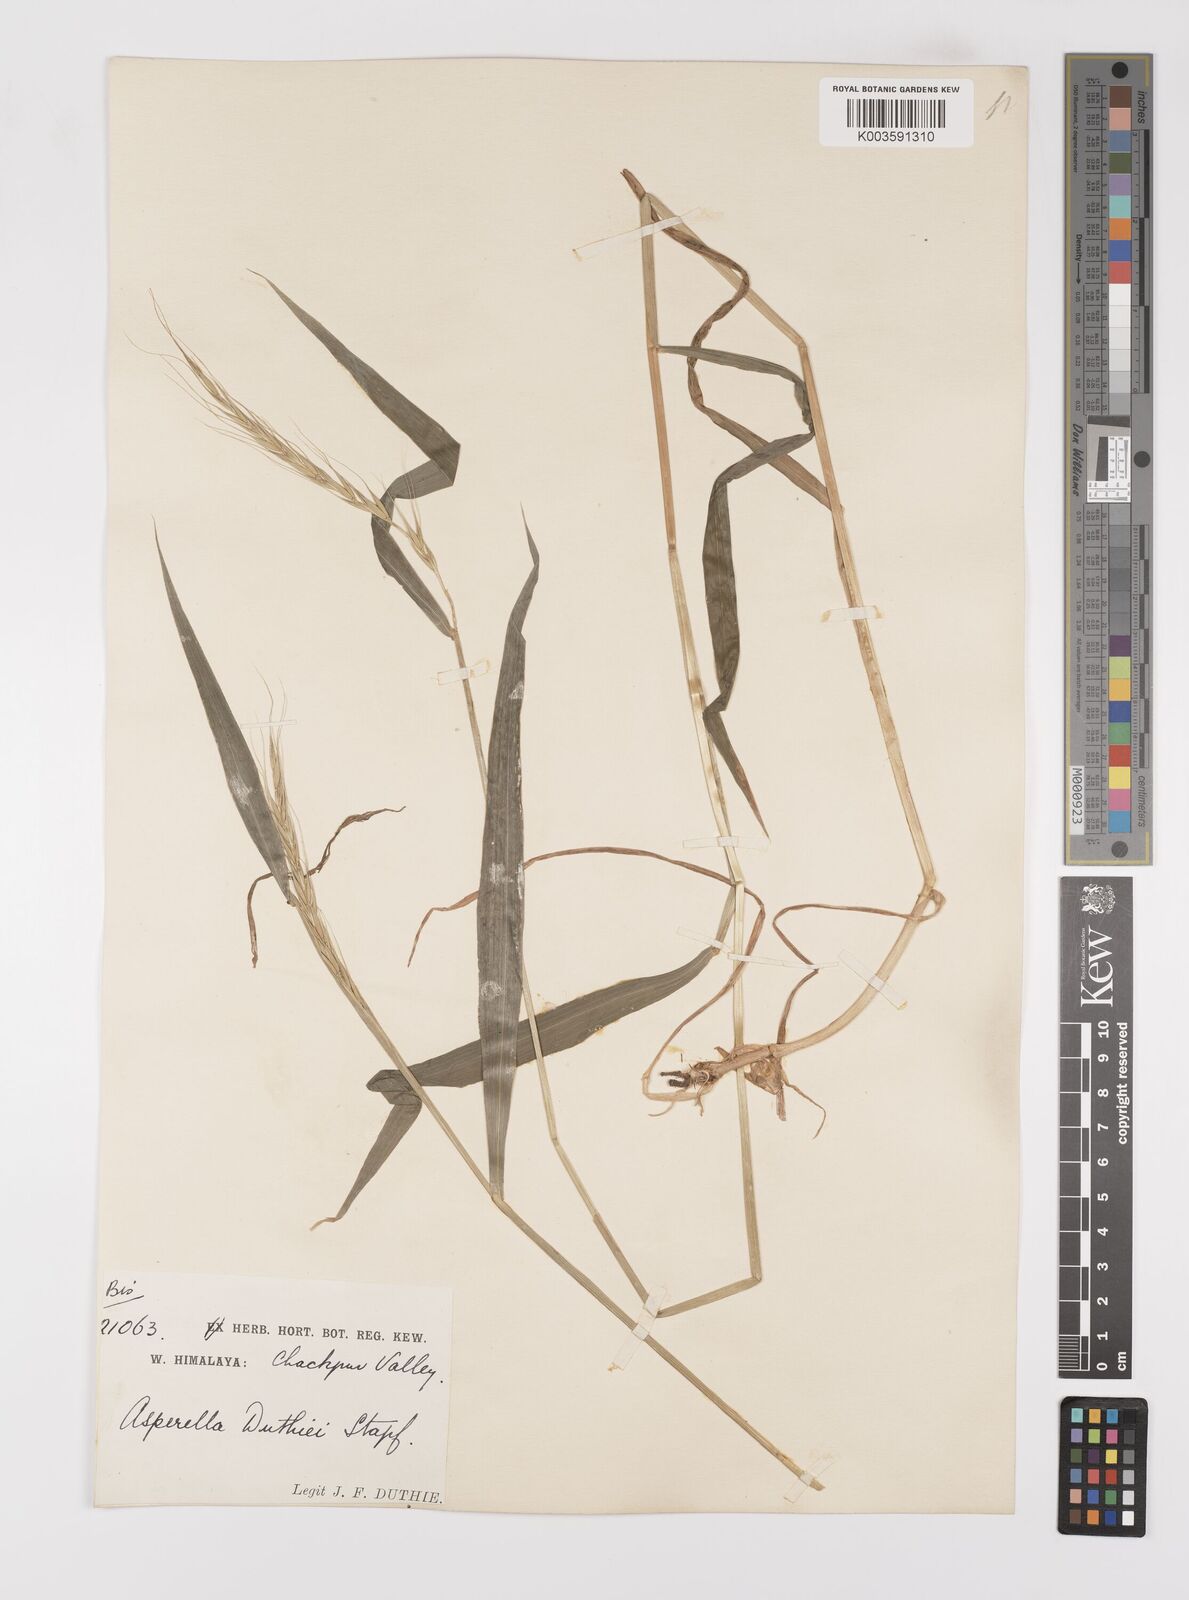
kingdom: Plantae
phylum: Tracheophyta
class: Liliopsida
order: Poales
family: Poaceae
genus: Leymus
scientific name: Leymus duthiei
